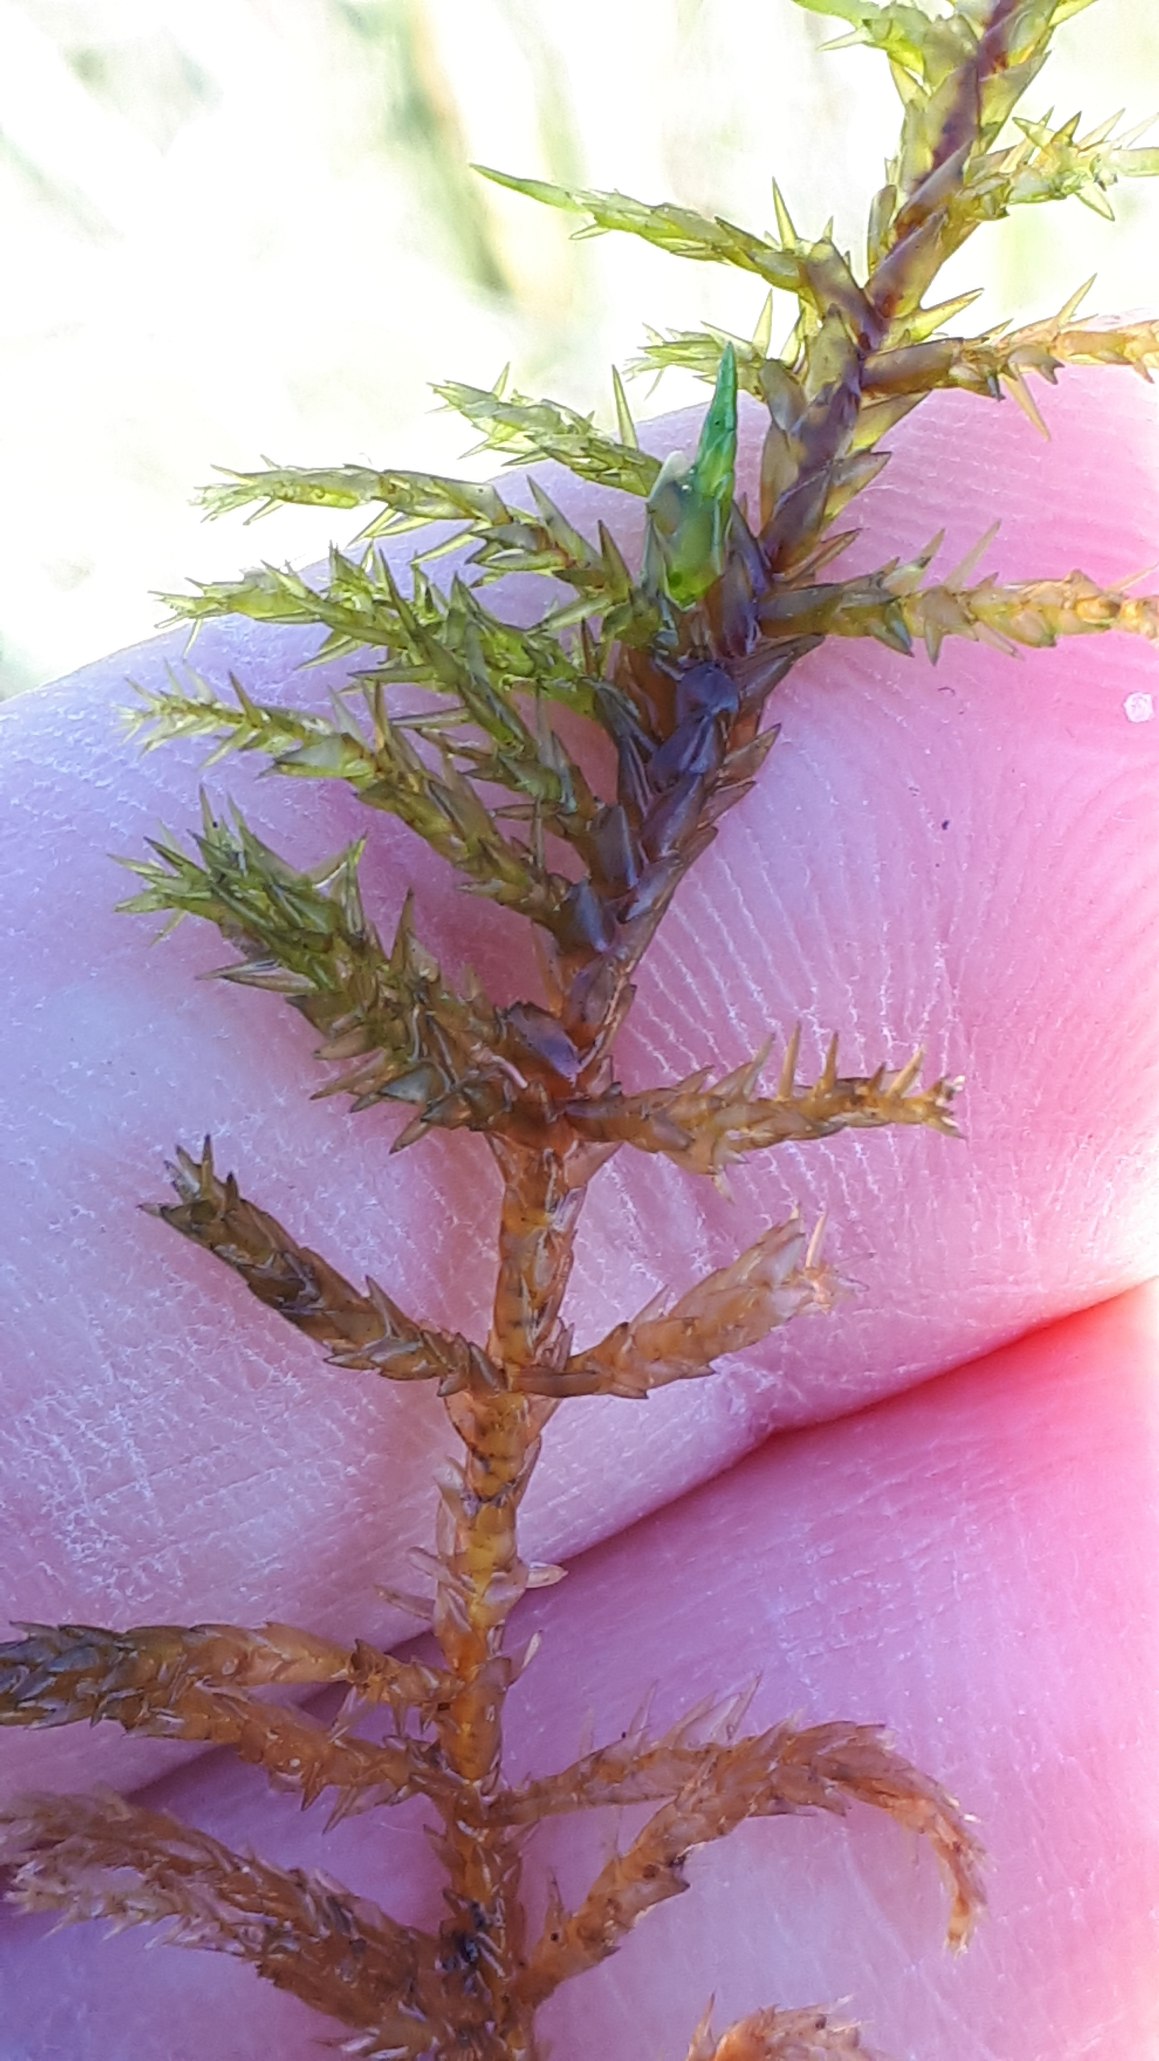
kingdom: Plantae
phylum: Bryophyta
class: Bryopsida
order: Hypnales
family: Pylaisiaceae
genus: Calliergonella
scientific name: Calliergonella cuspidata
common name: Spids spydmos
